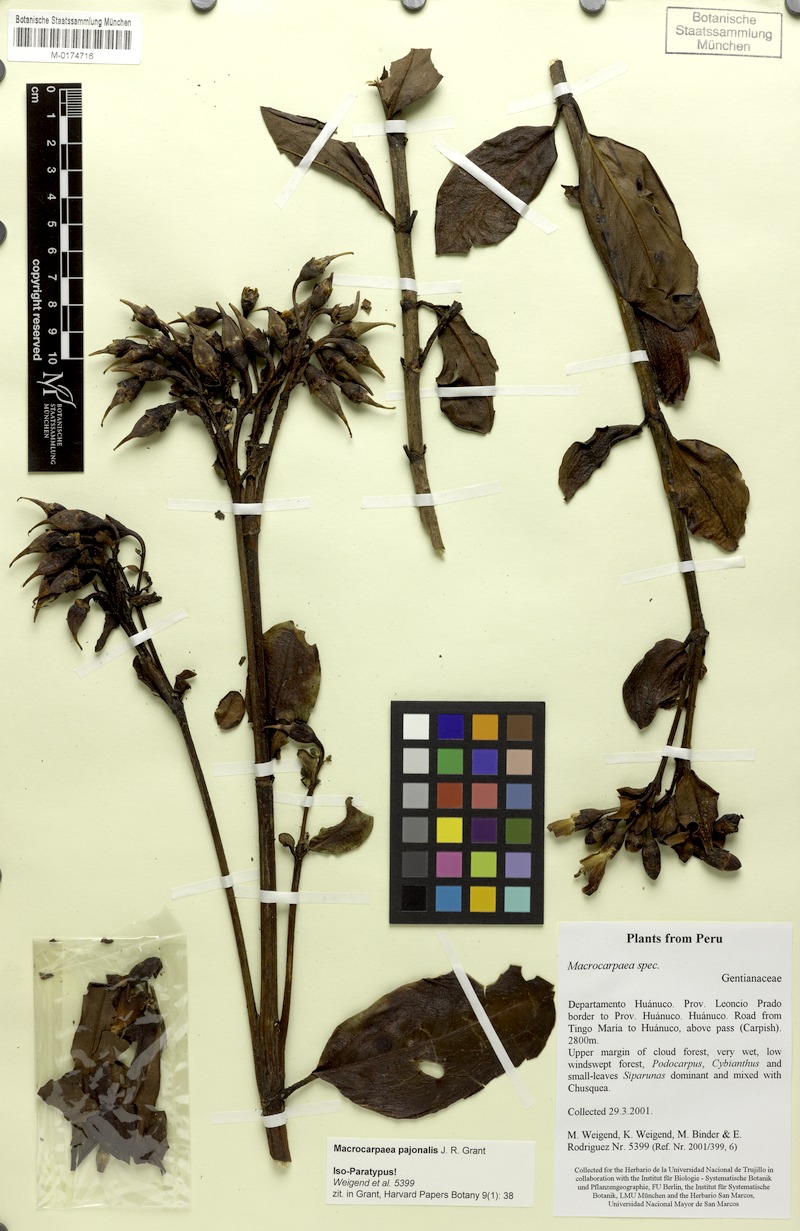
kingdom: Plantae
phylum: Tracheophyta
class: Magnoliopsida
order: Gentianales
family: Gentianaceae
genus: Macrocarpaea
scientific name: Macrocarpaea pajonalis
